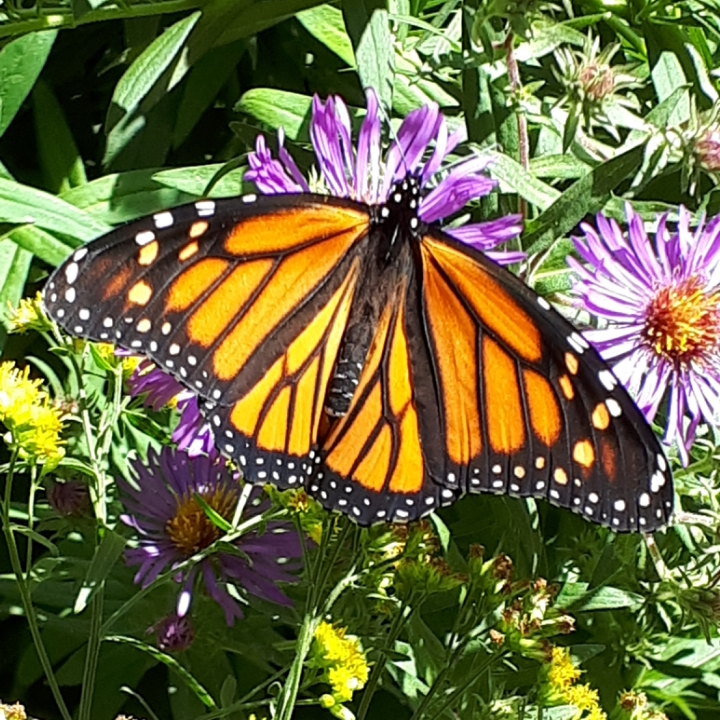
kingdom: Animalia
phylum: Arthropoda
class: Insecta
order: Lepidoptera
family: Nymphalidae
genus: Danaus
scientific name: Danaus plexippus
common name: Monarch
